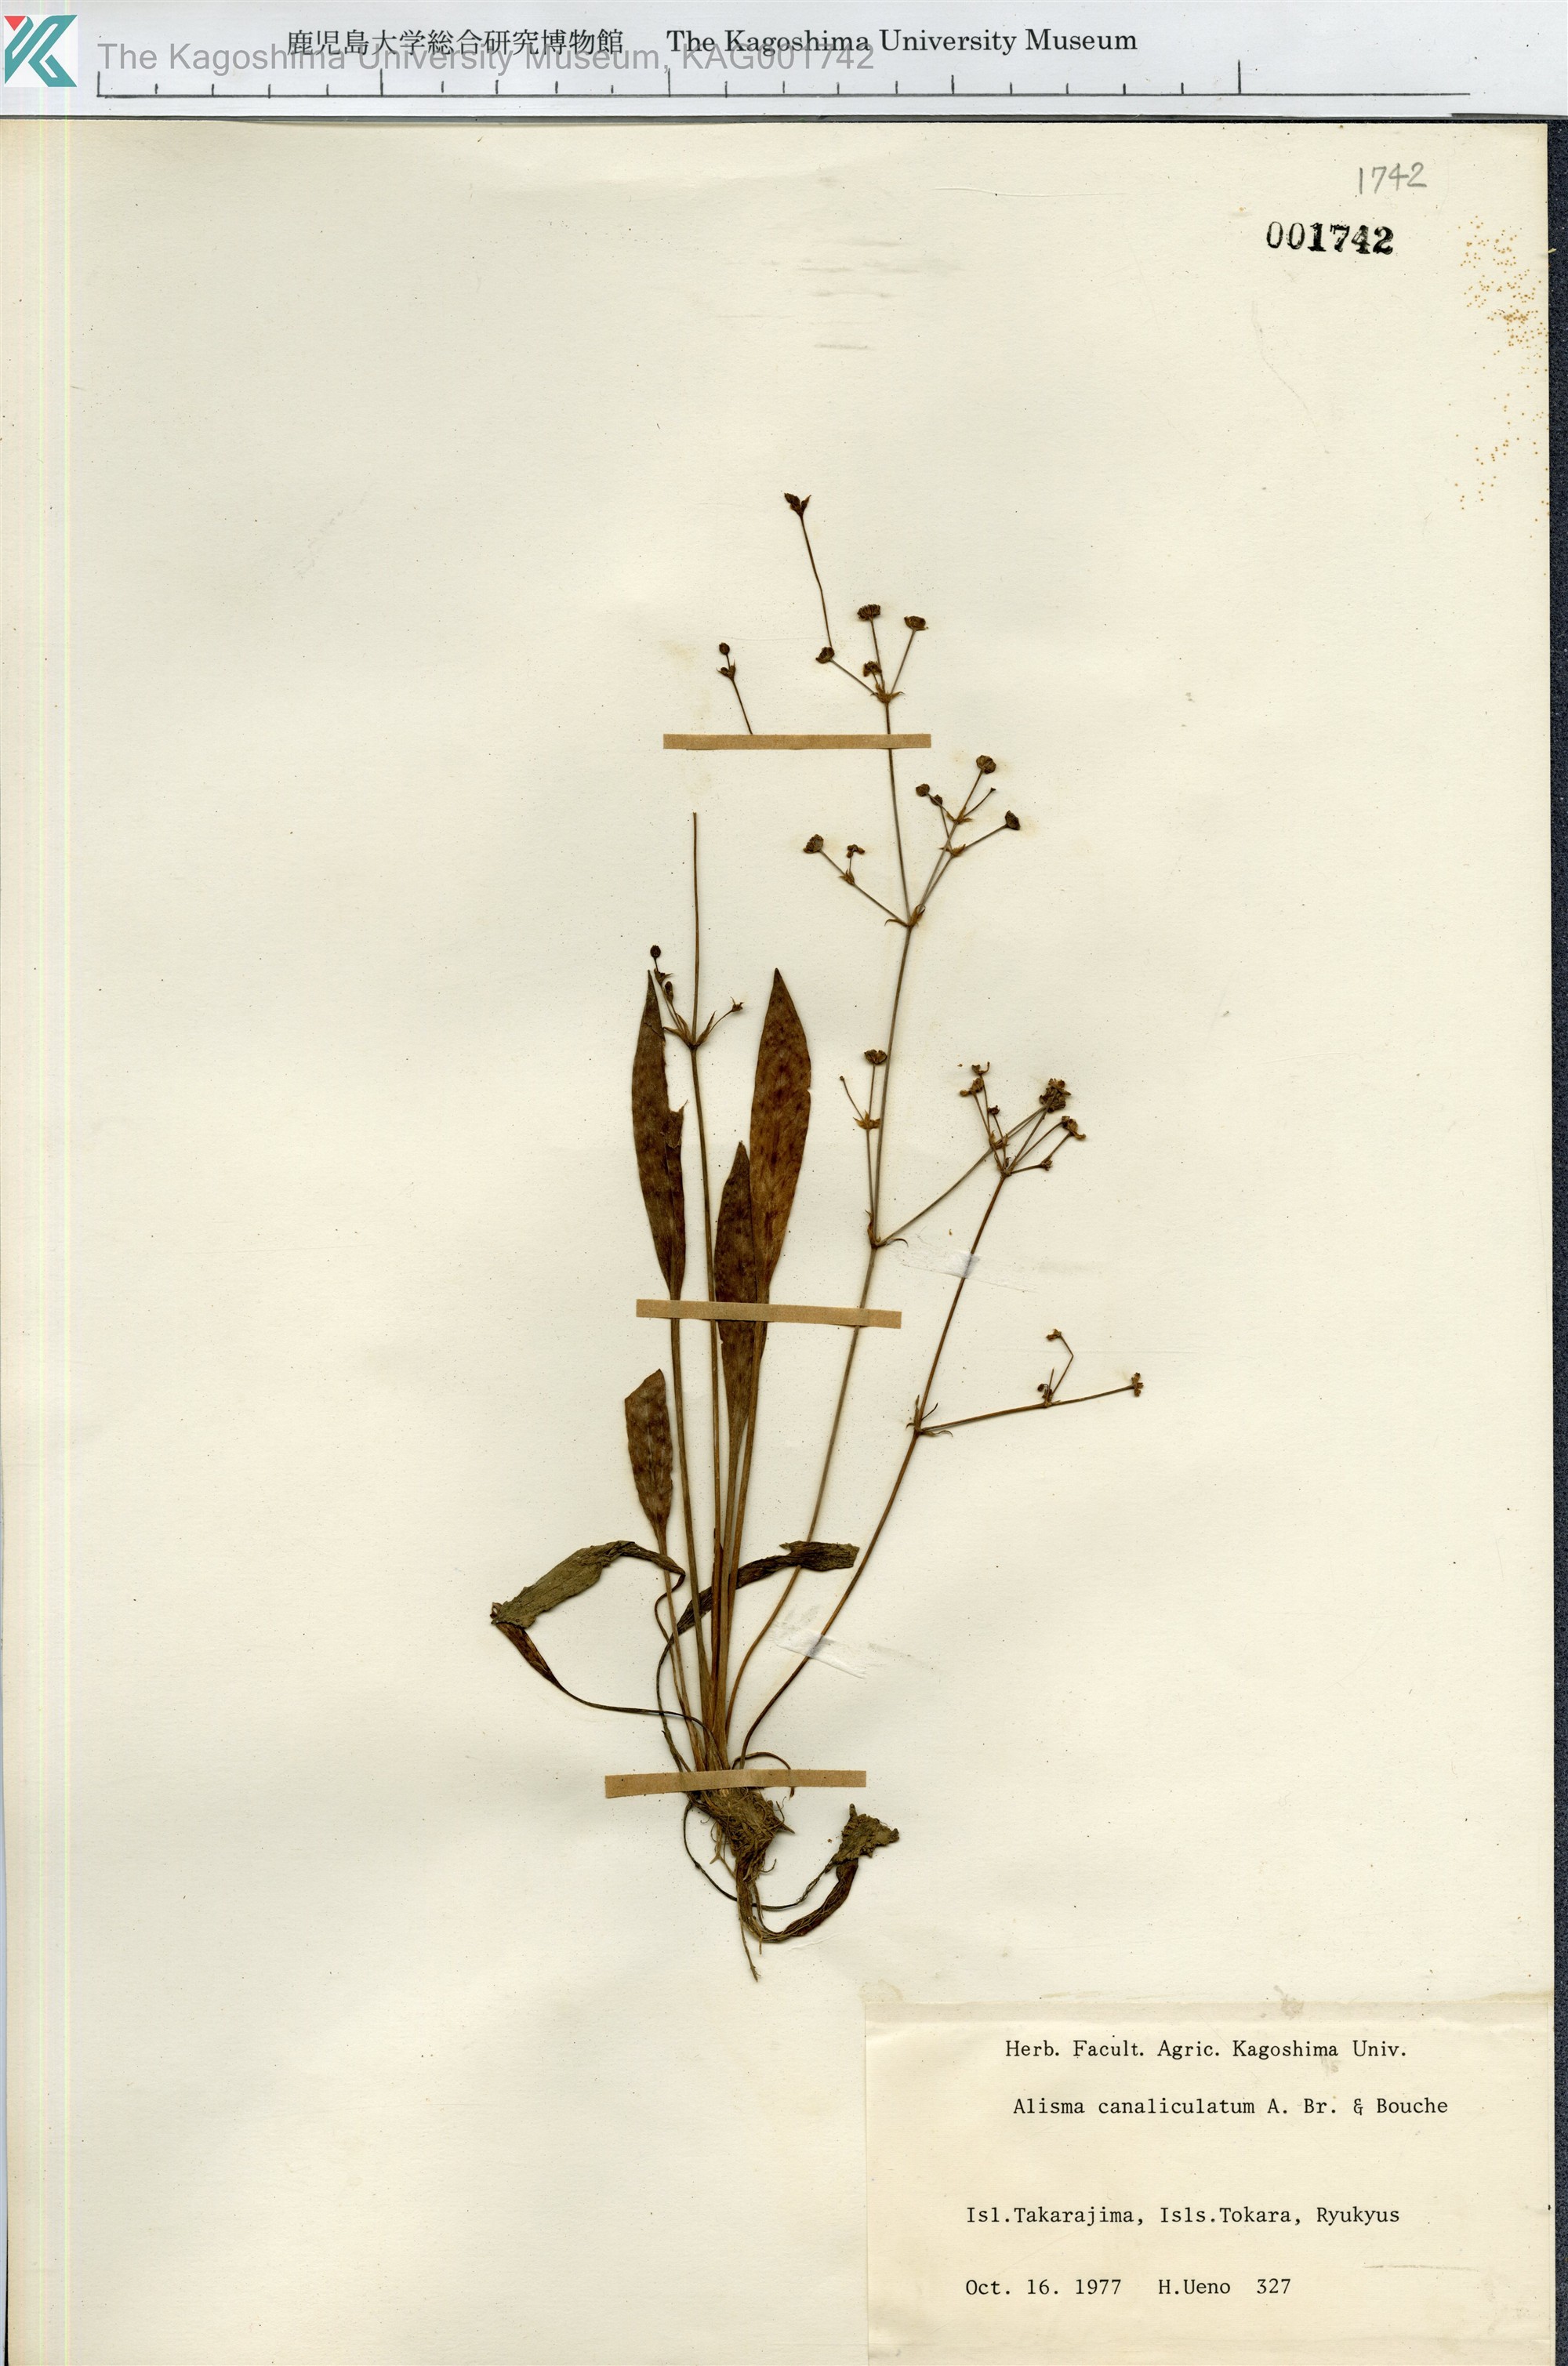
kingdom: Plantae
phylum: Tracheophyta
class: Liliopsida
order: Alismatales
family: Alismataceae
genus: Alisma
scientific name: Alisma canaliculatum
